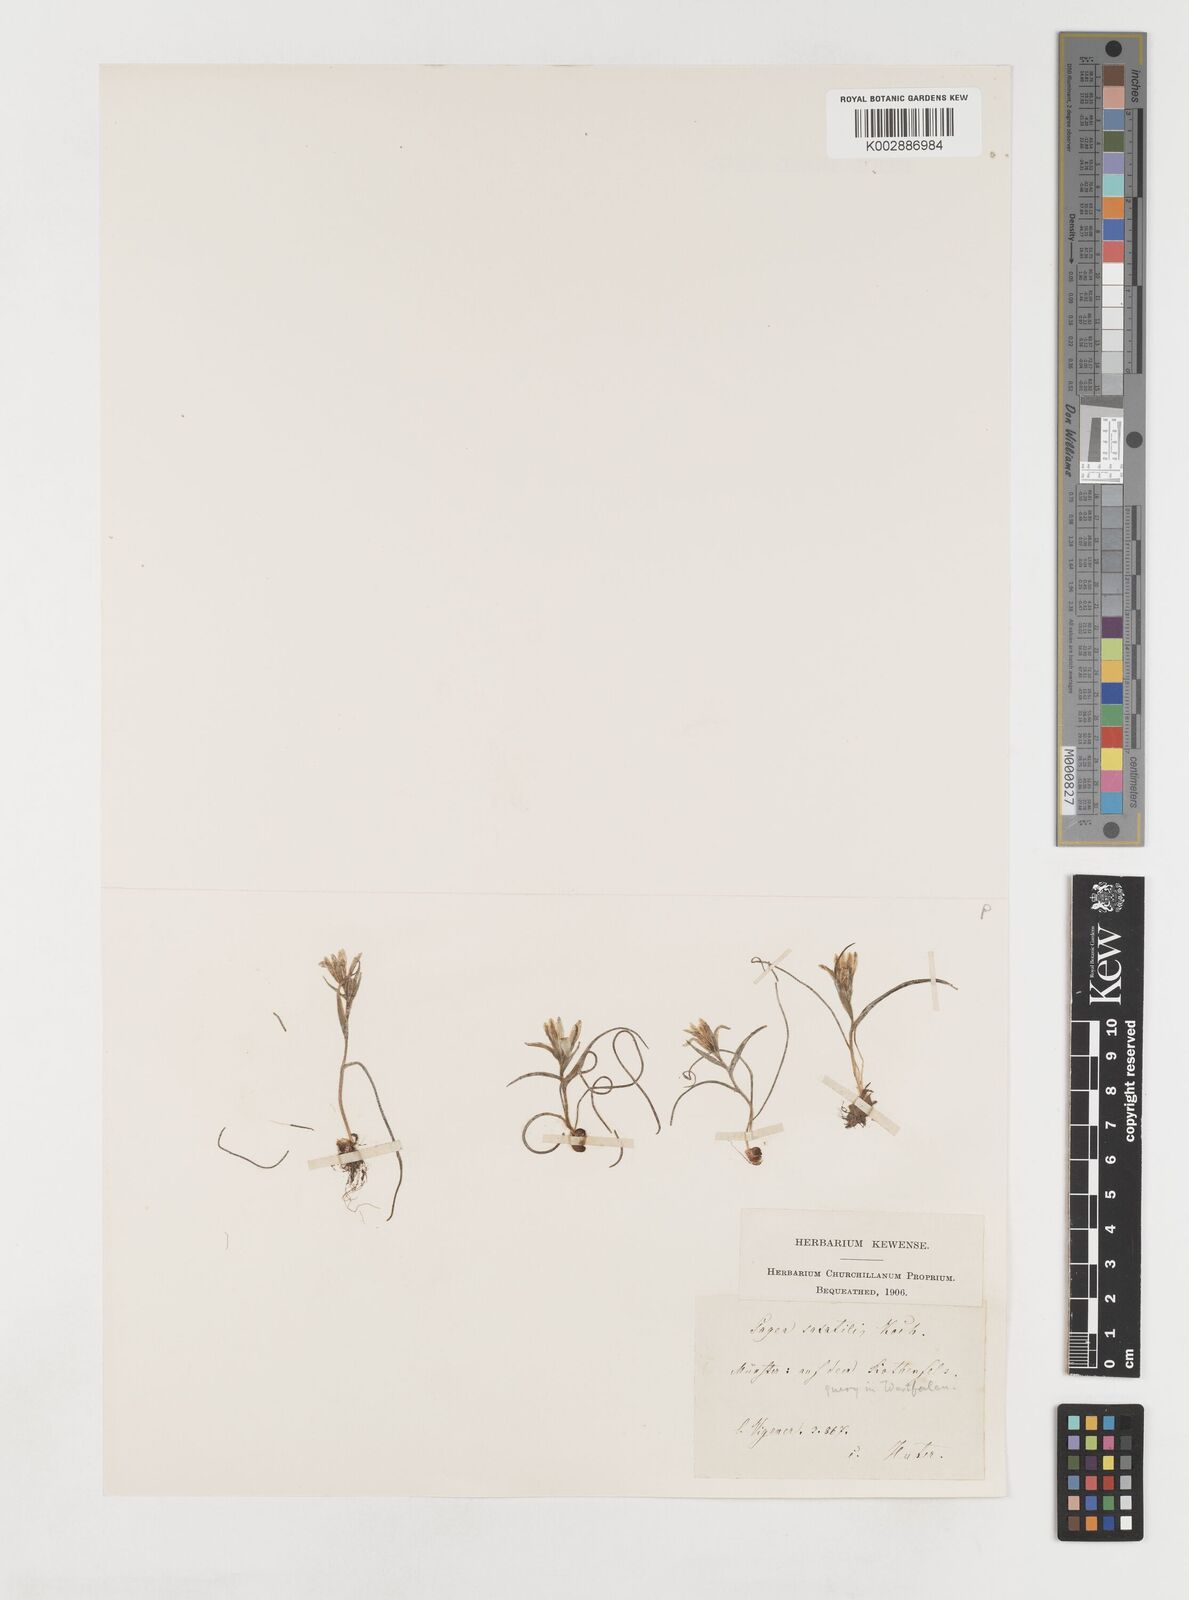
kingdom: Plantae
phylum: Tracheophyta
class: Liliopsida
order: Liliales
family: Liliaceae
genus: Gagea
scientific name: Gagea bohemica
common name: Early star-of-bethlehem
